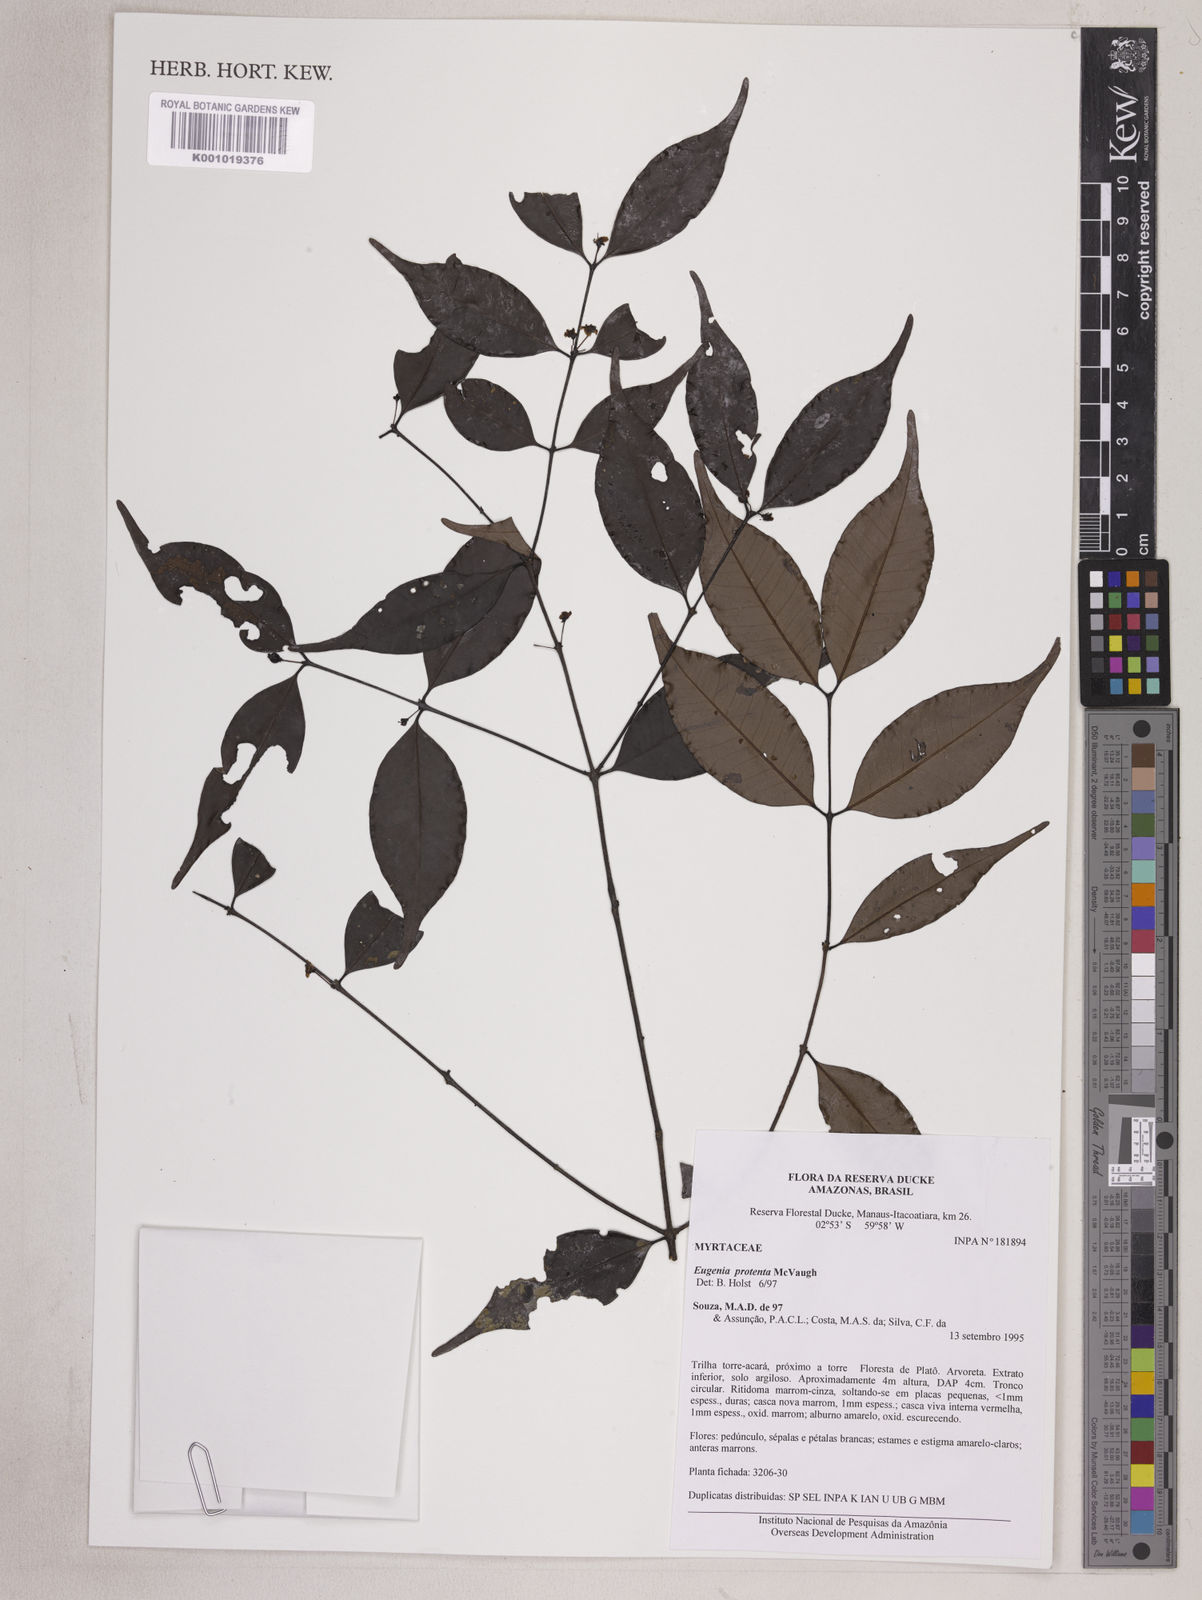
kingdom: Plantae
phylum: Tracheophyta
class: Magnoliopsida
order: Myrtales
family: Myrtaceae
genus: Eugenia
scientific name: Eugenia protenta
